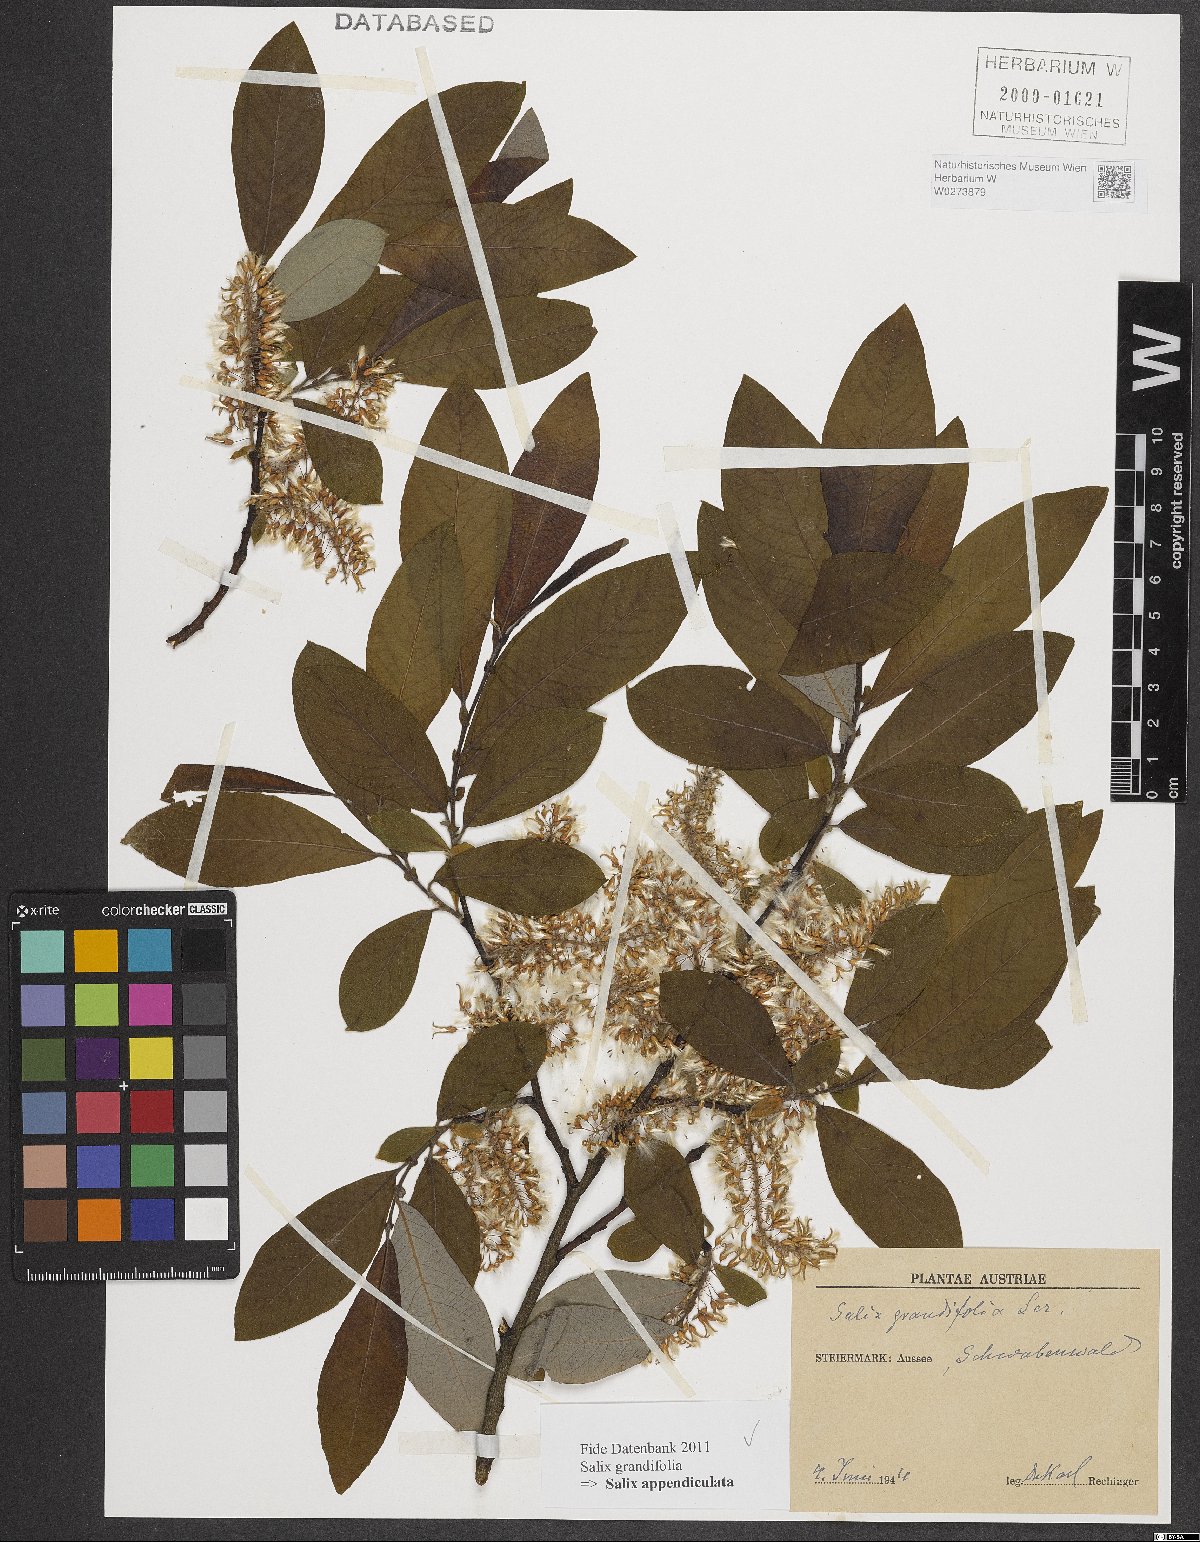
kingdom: Plantae
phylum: Tracheophyta
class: Magnoliopsida
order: Malpighiales
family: Salicaceae
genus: Salix
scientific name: Salix appendiculata
